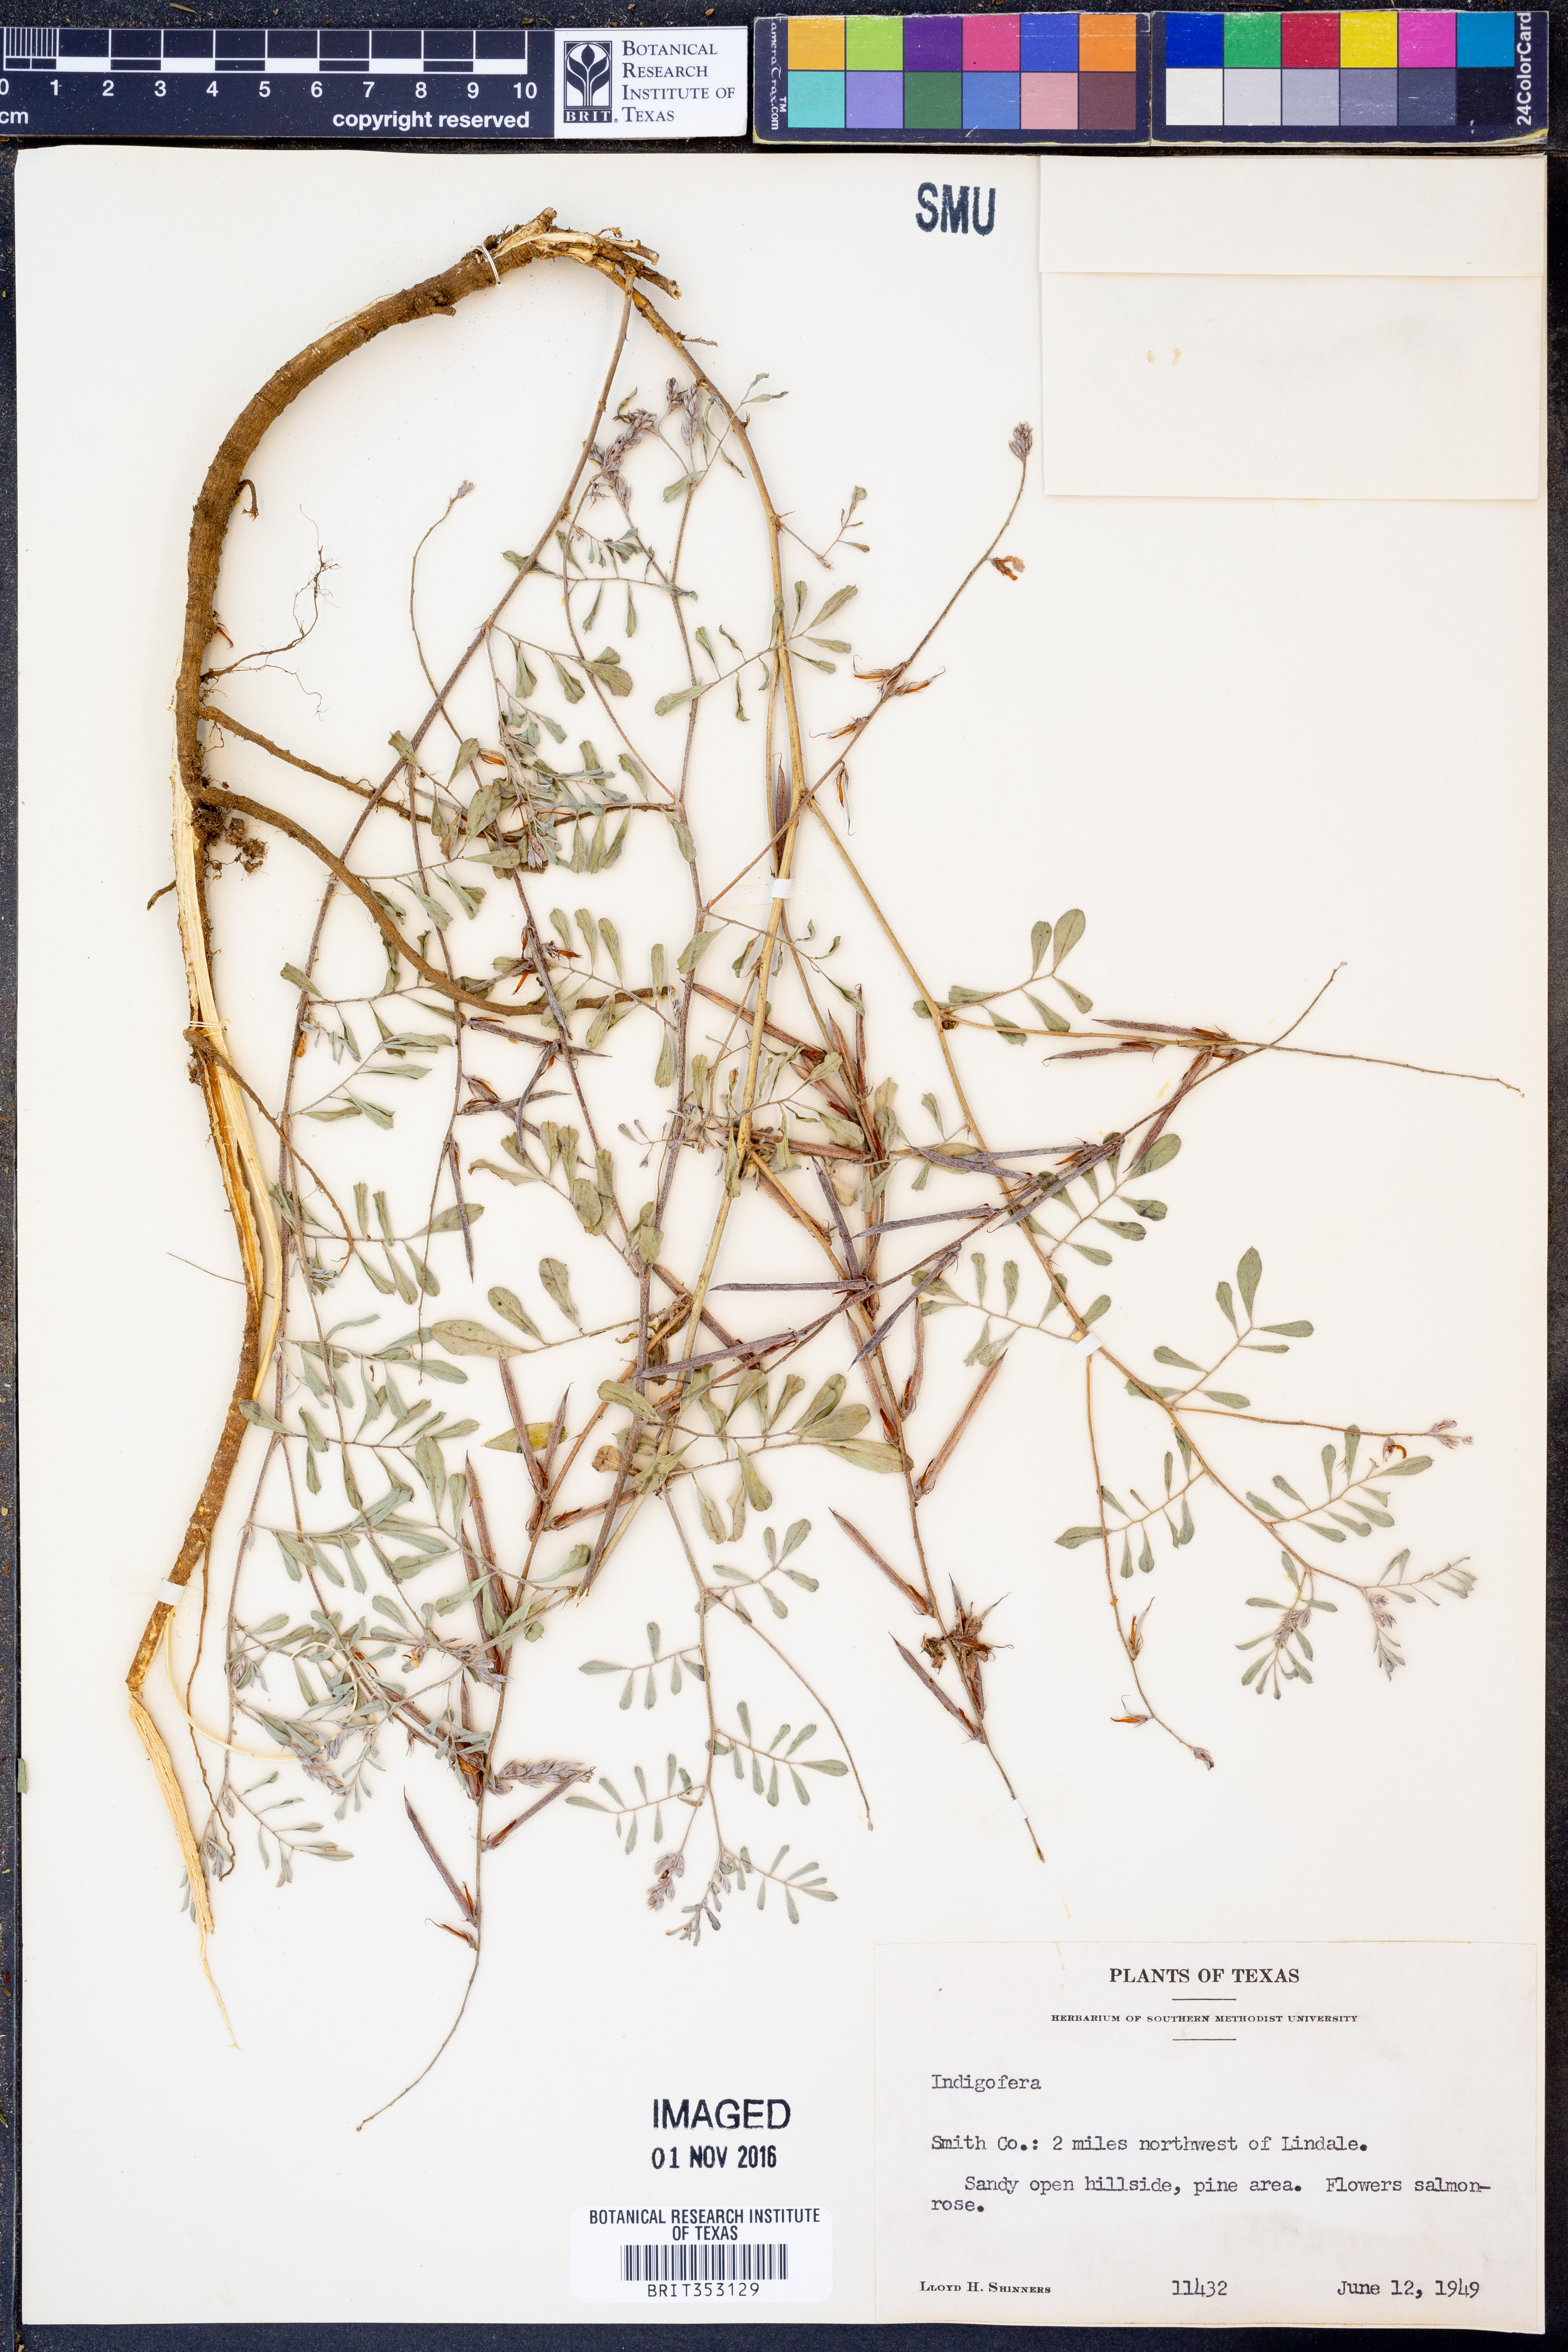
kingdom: Plantae
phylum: Tracheophyta
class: Magnoliopsida
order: Fabales
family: Fabaceae
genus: Indigofera
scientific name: Indigofera
